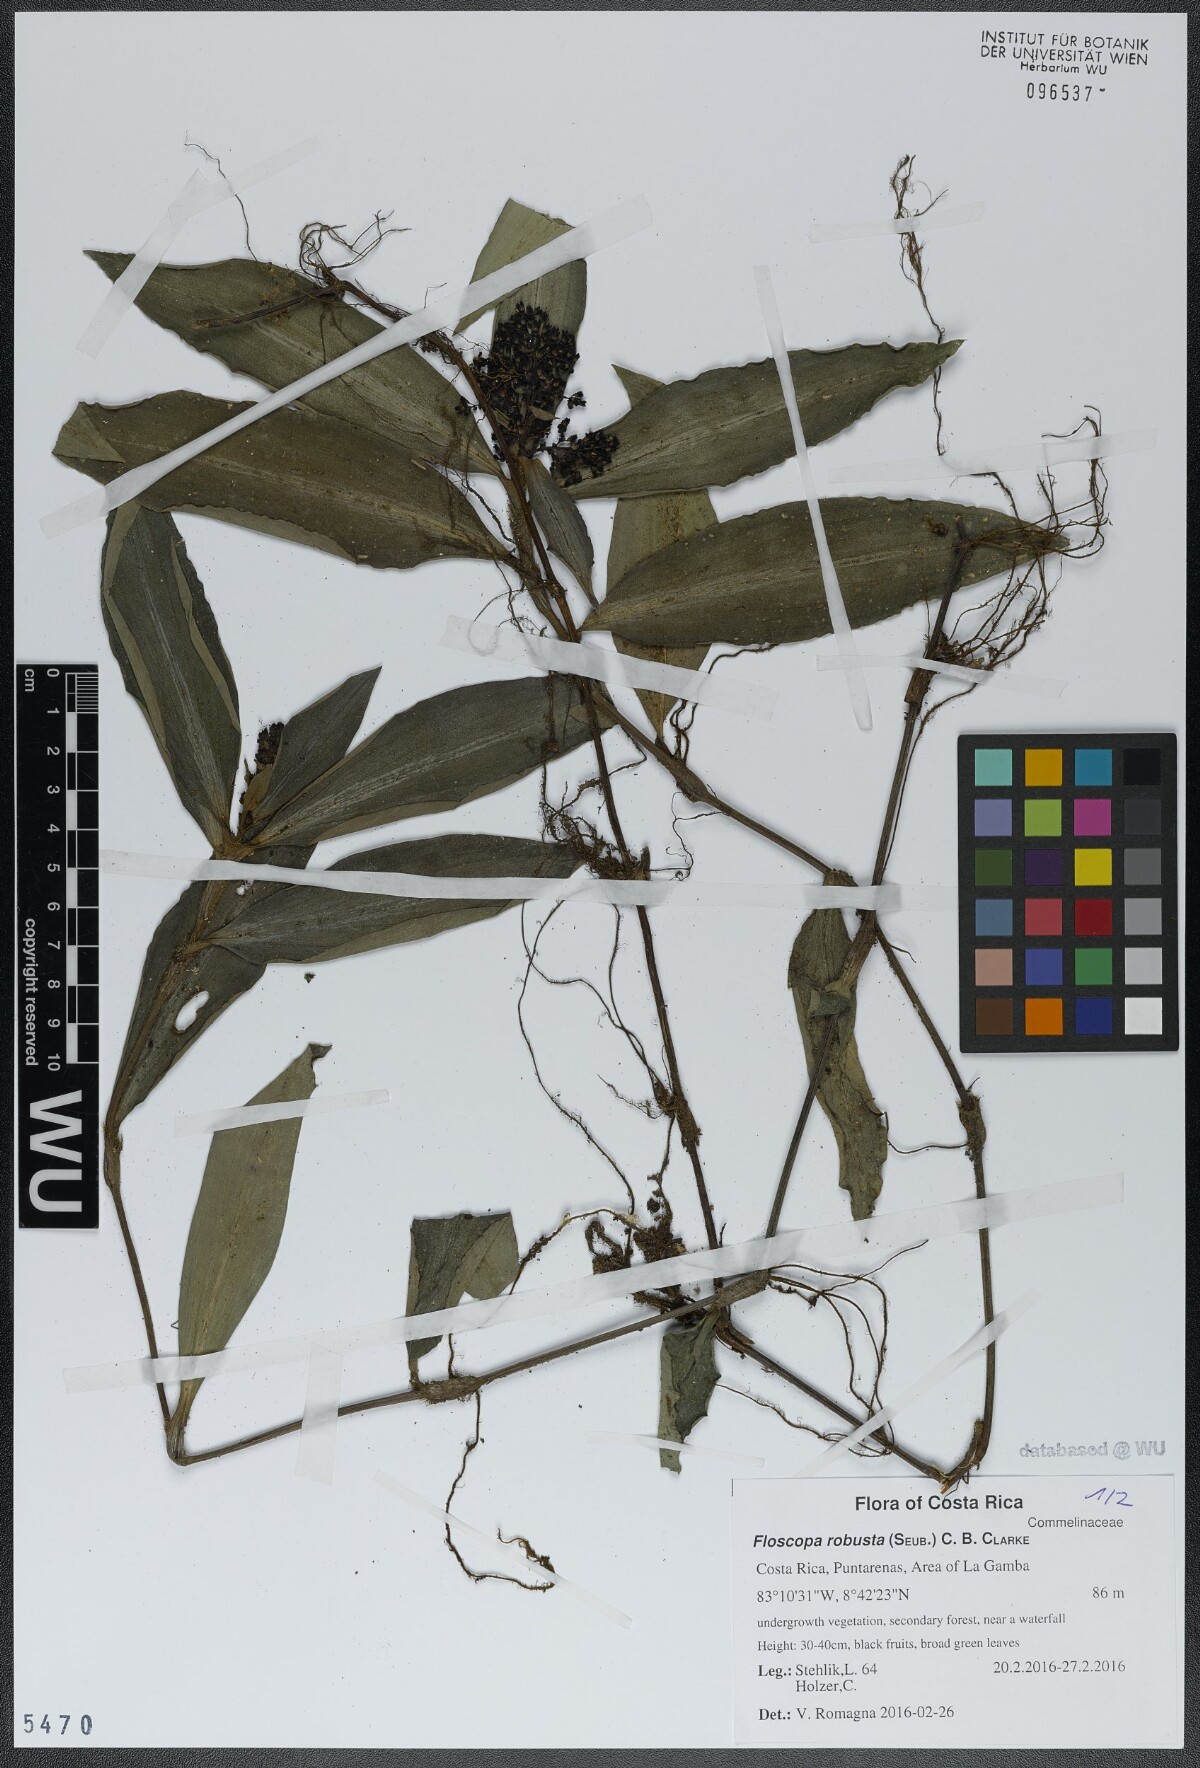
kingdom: Plantae
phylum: Tracheophyta
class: Liliopsida
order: Commelinales
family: Commelinaceae
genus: Floscopa
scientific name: Floscopa robusta
